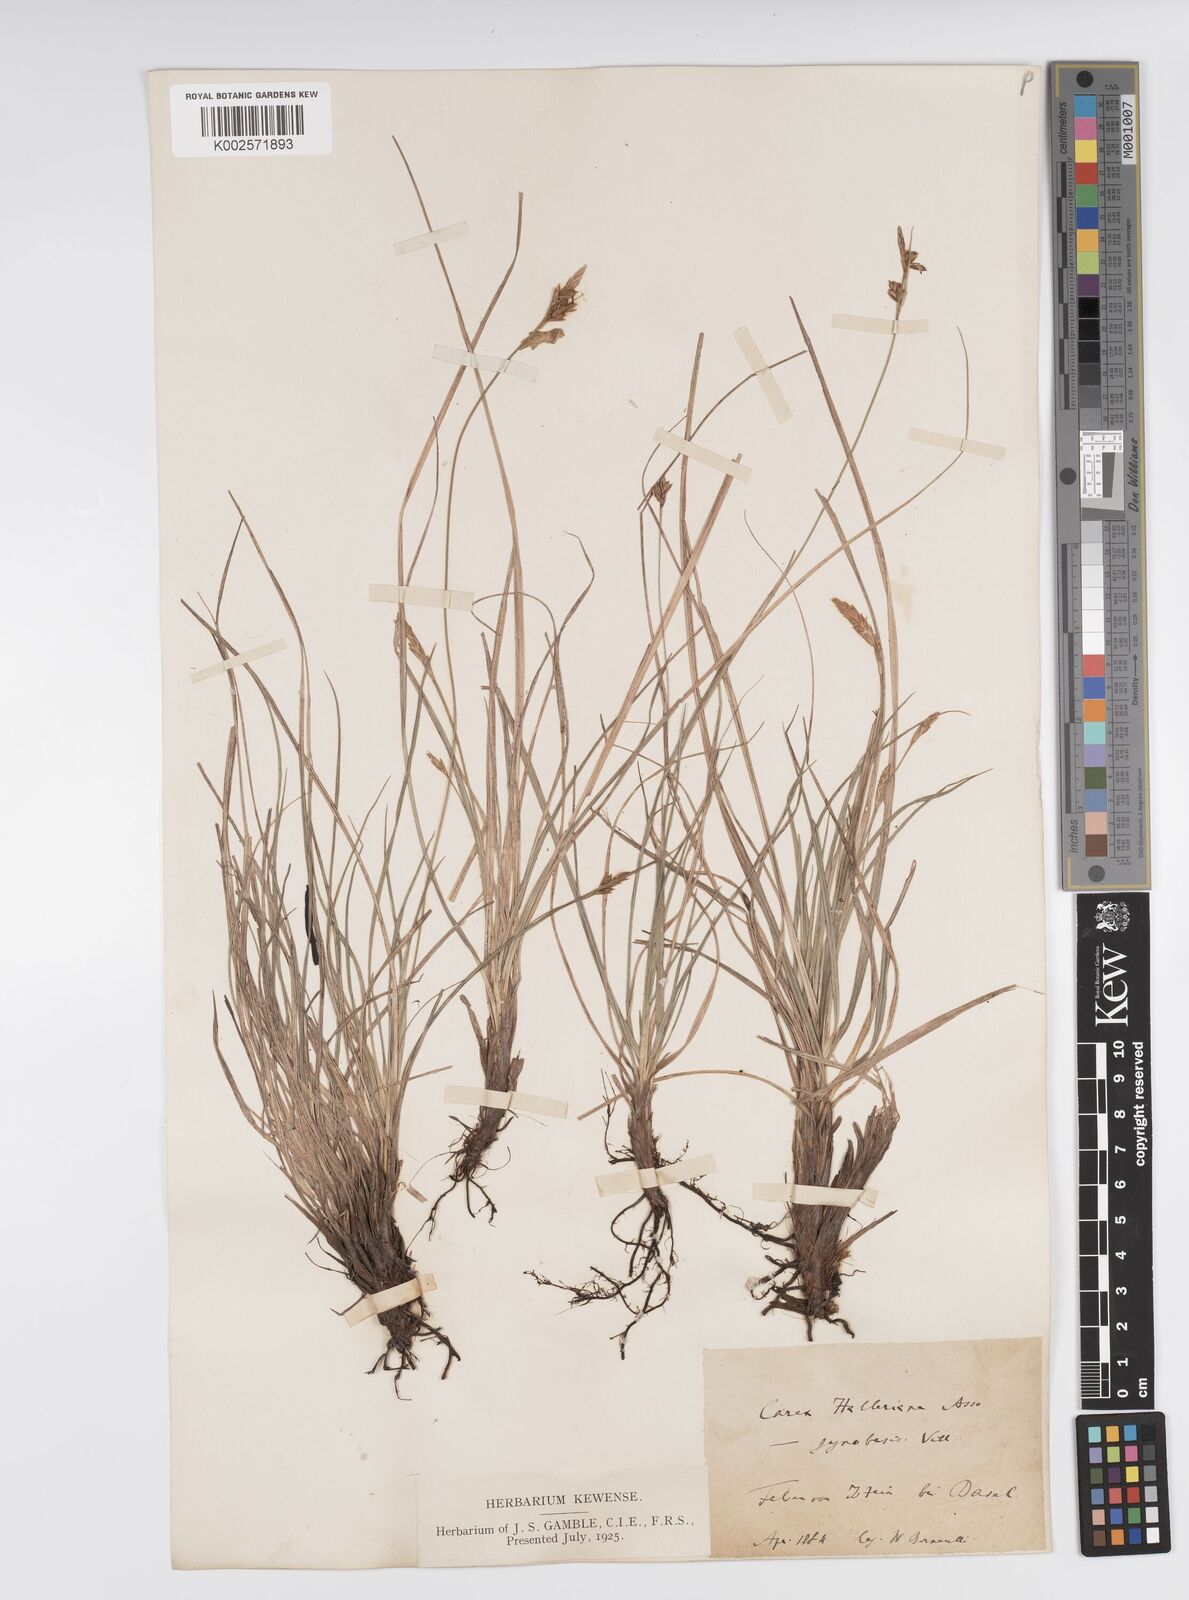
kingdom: Plantae
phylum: Tracheophyta
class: Liliopsida
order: Poales
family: Cyperaceae
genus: Carex
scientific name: Carex halleriana
